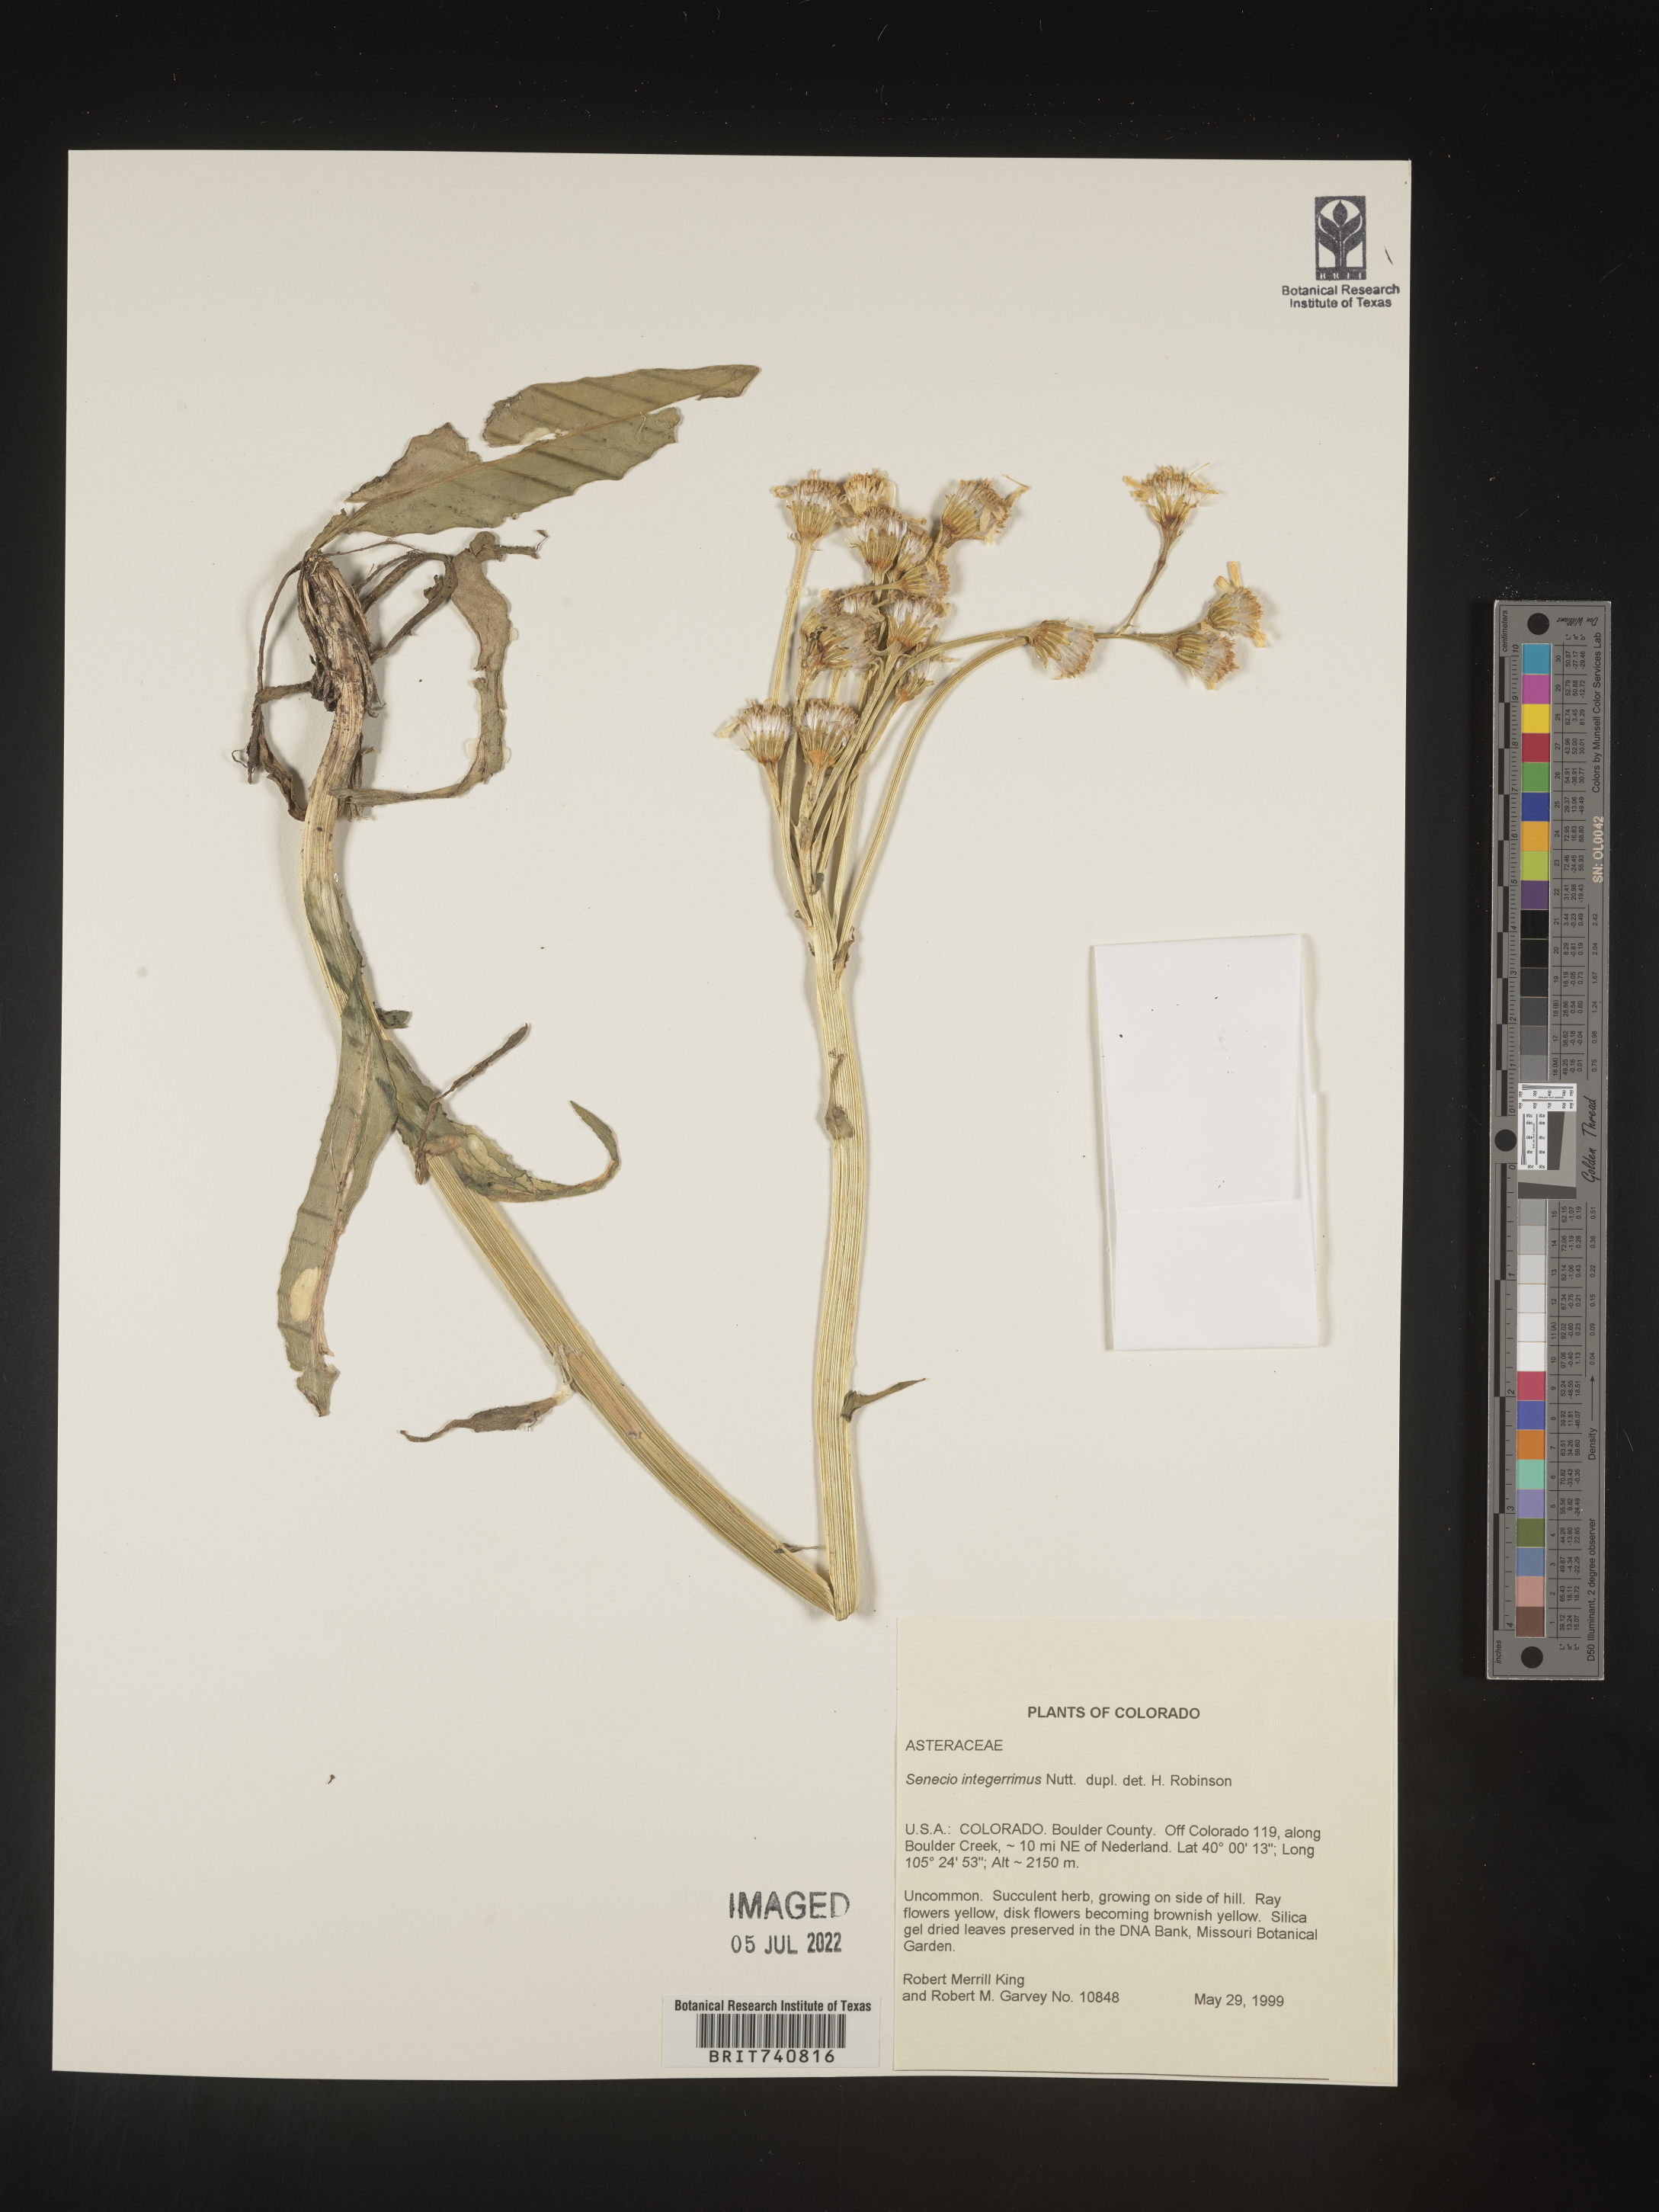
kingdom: Plantae
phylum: Tracheophyta
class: Magnoliopsida
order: Asterales
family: Asteraceae
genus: Senecio
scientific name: Senecio integerrimus
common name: Gaugeplant
